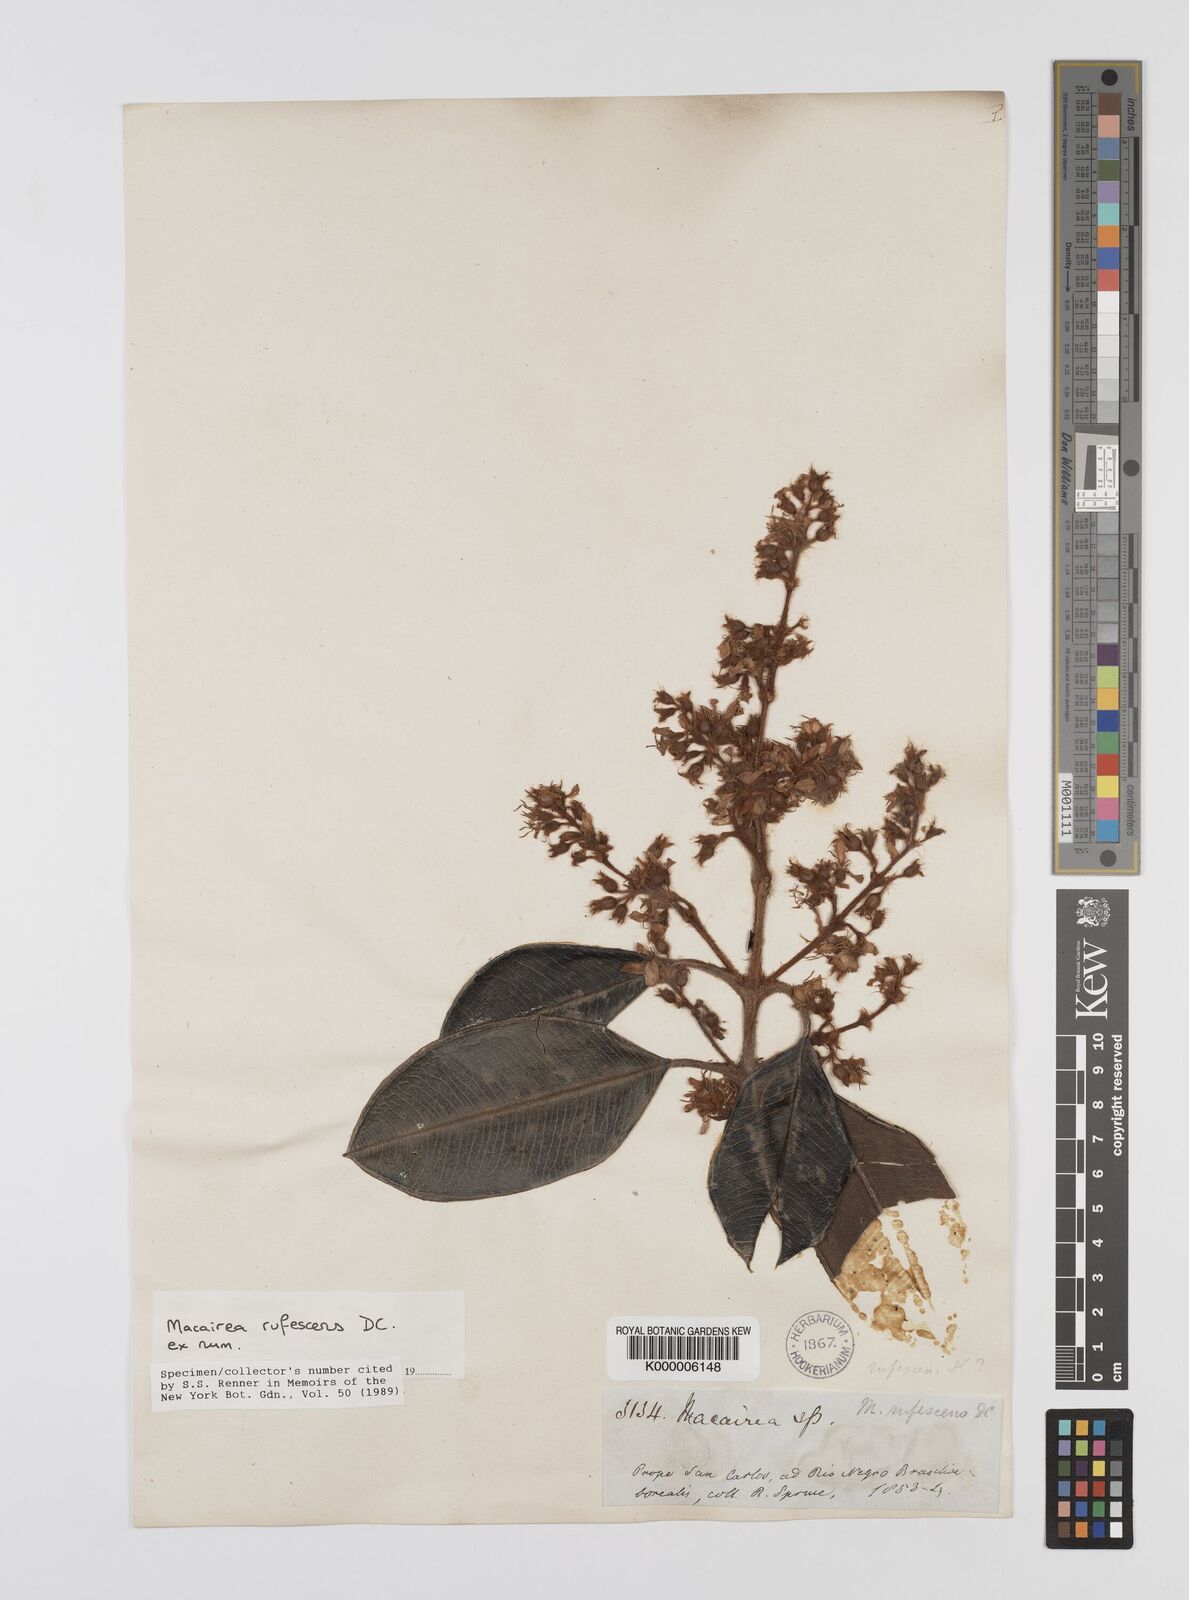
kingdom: Plantae
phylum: Tracheophyta
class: Magnoliopsida
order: Myrtales
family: Melastomataceae
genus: Macairea
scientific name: Macairea rufescens
